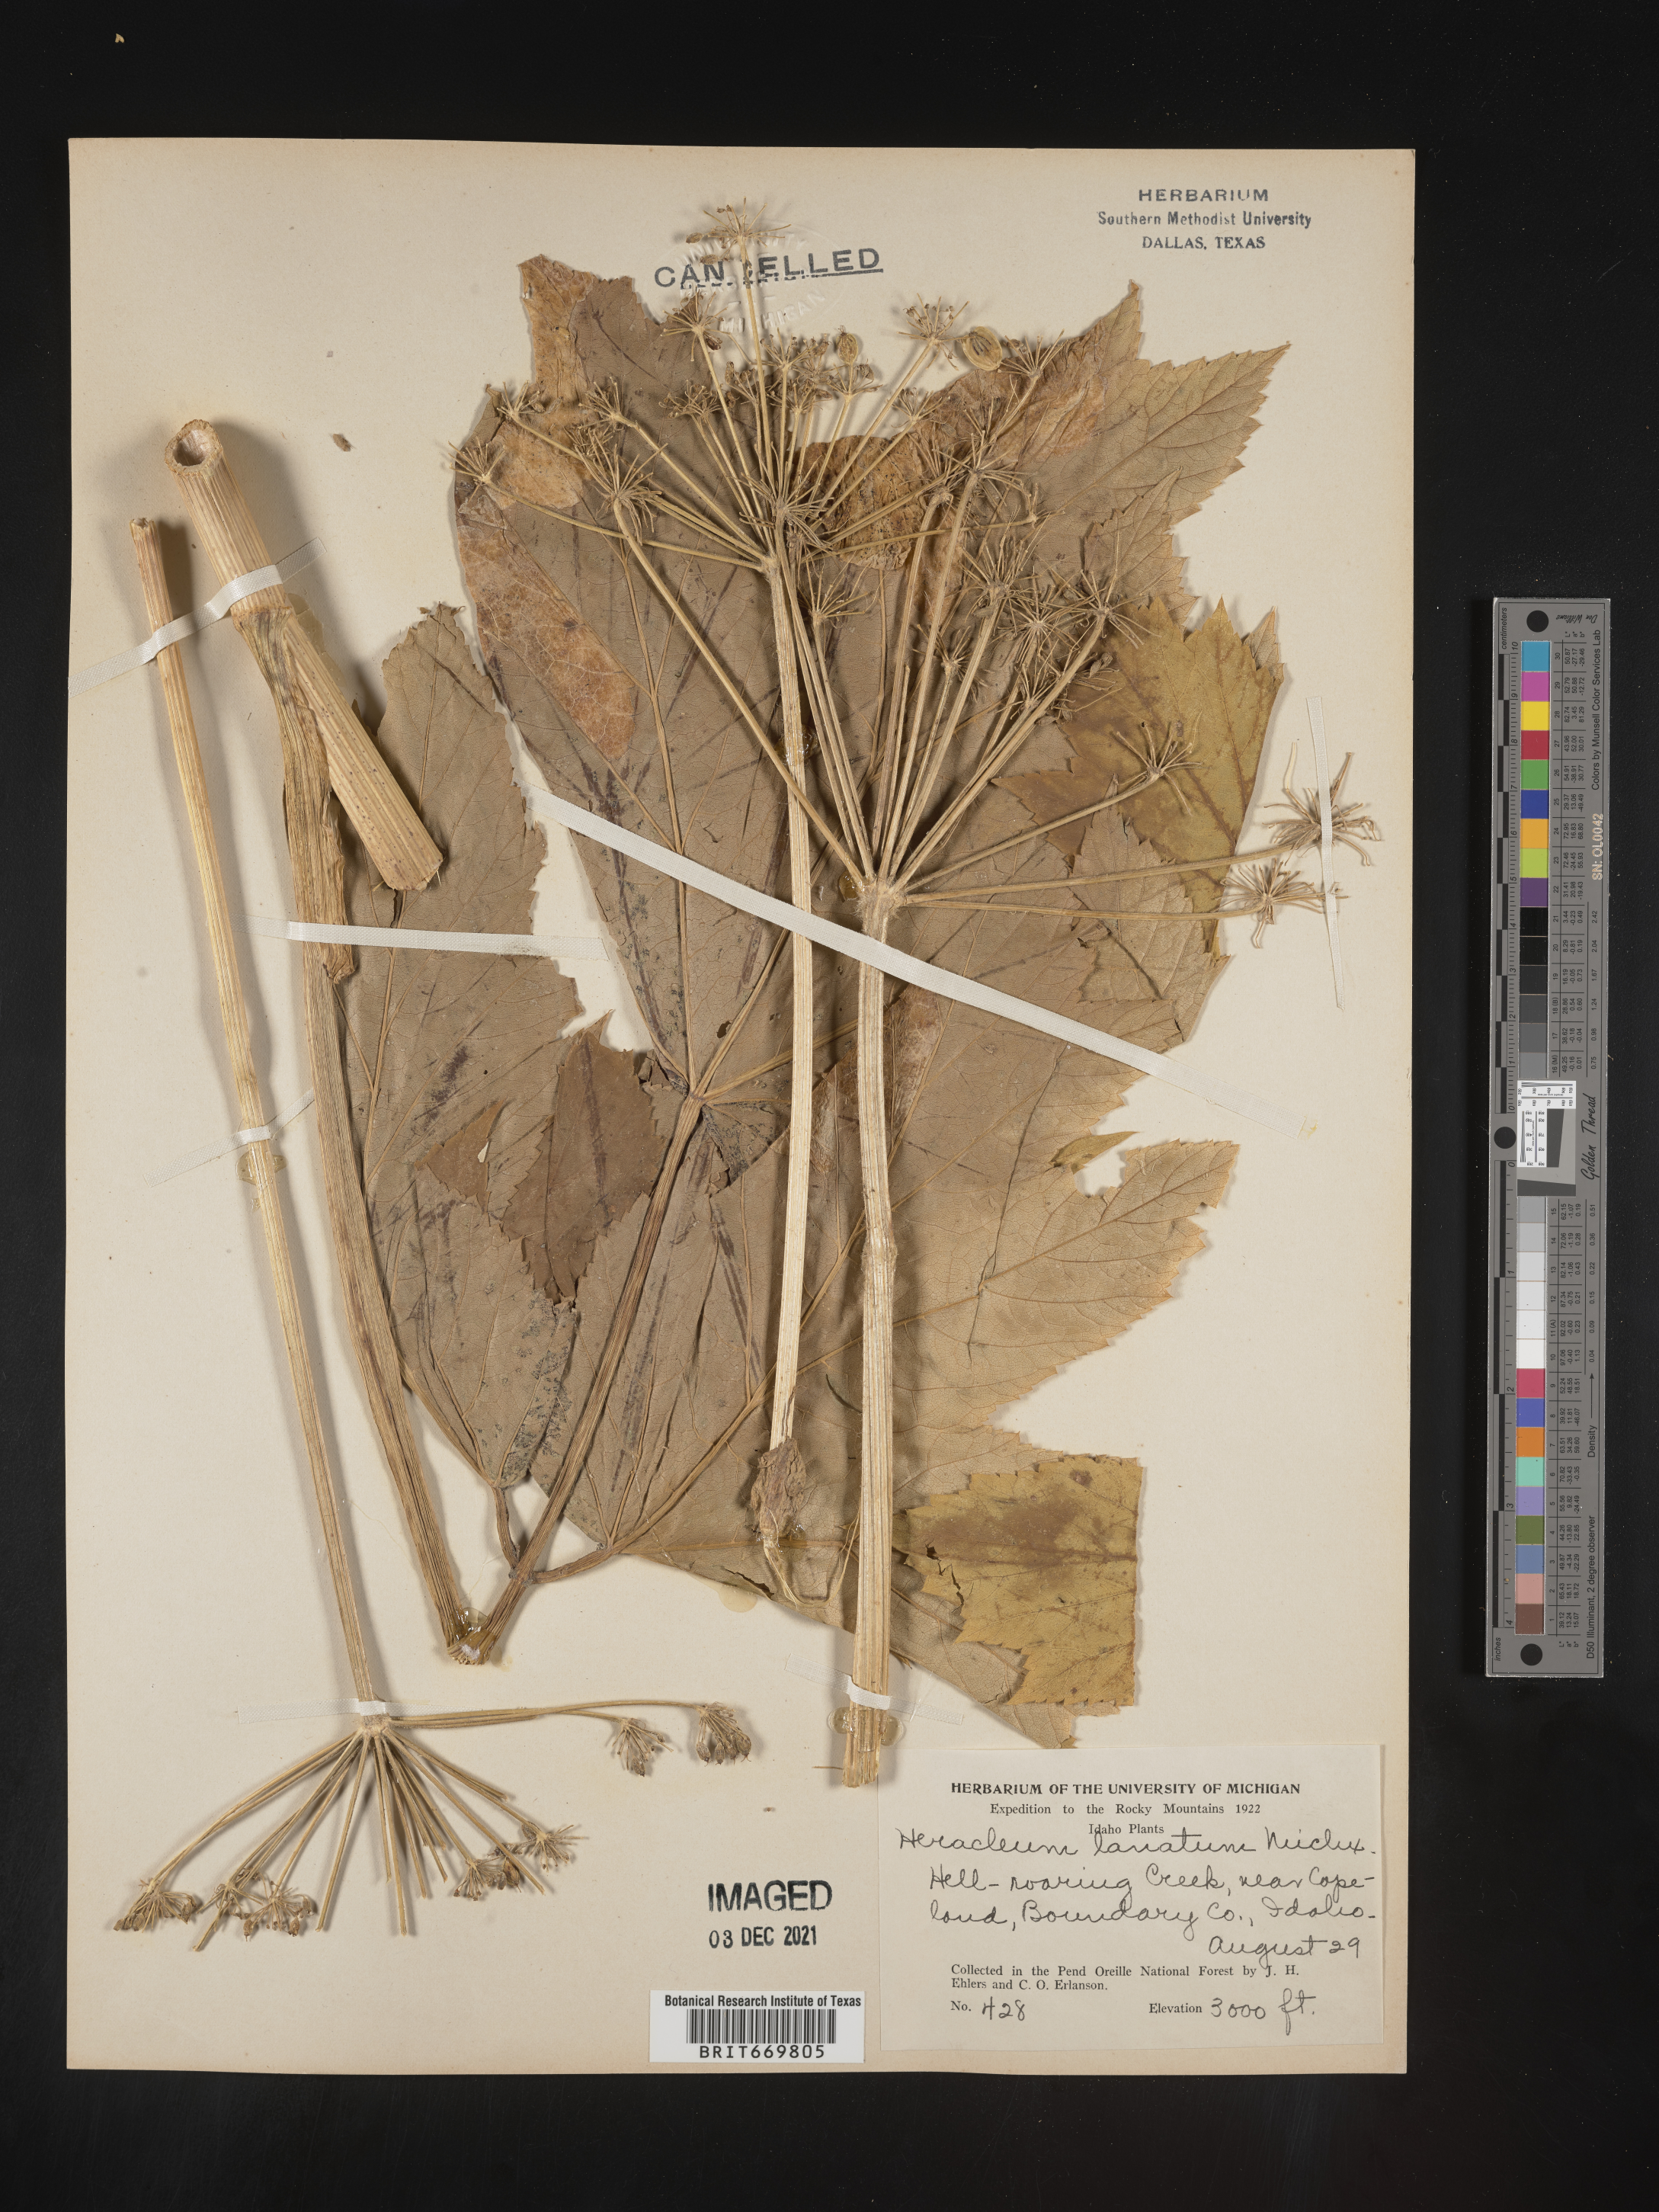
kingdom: Plantae
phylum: Tracheophyta
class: Magnoliopsida
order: Apiales
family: Apiaceae
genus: Heracleum
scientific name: Heracleum maximum
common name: American cow parsnip
